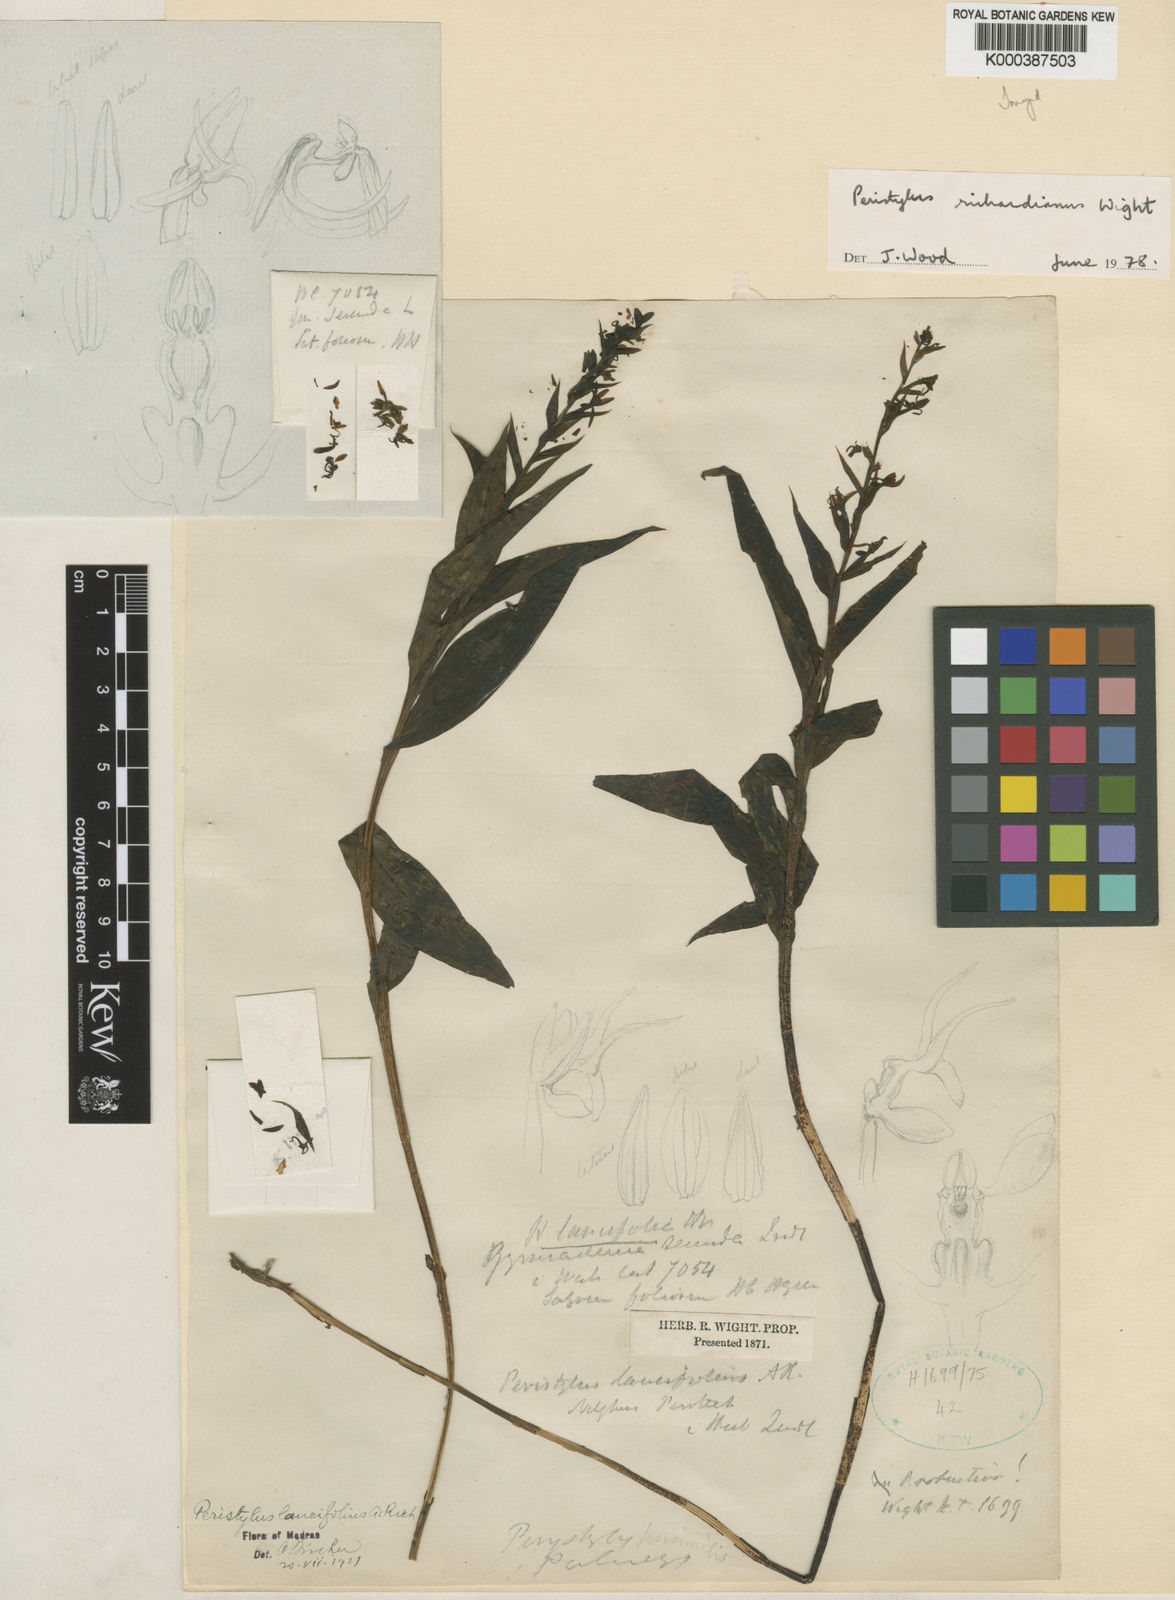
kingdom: Plantae
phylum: Tracheophyta
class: Liliopsida
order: Asparagales
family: Orchidaceae
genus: Peristylus
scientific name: Peristylus richardianus
